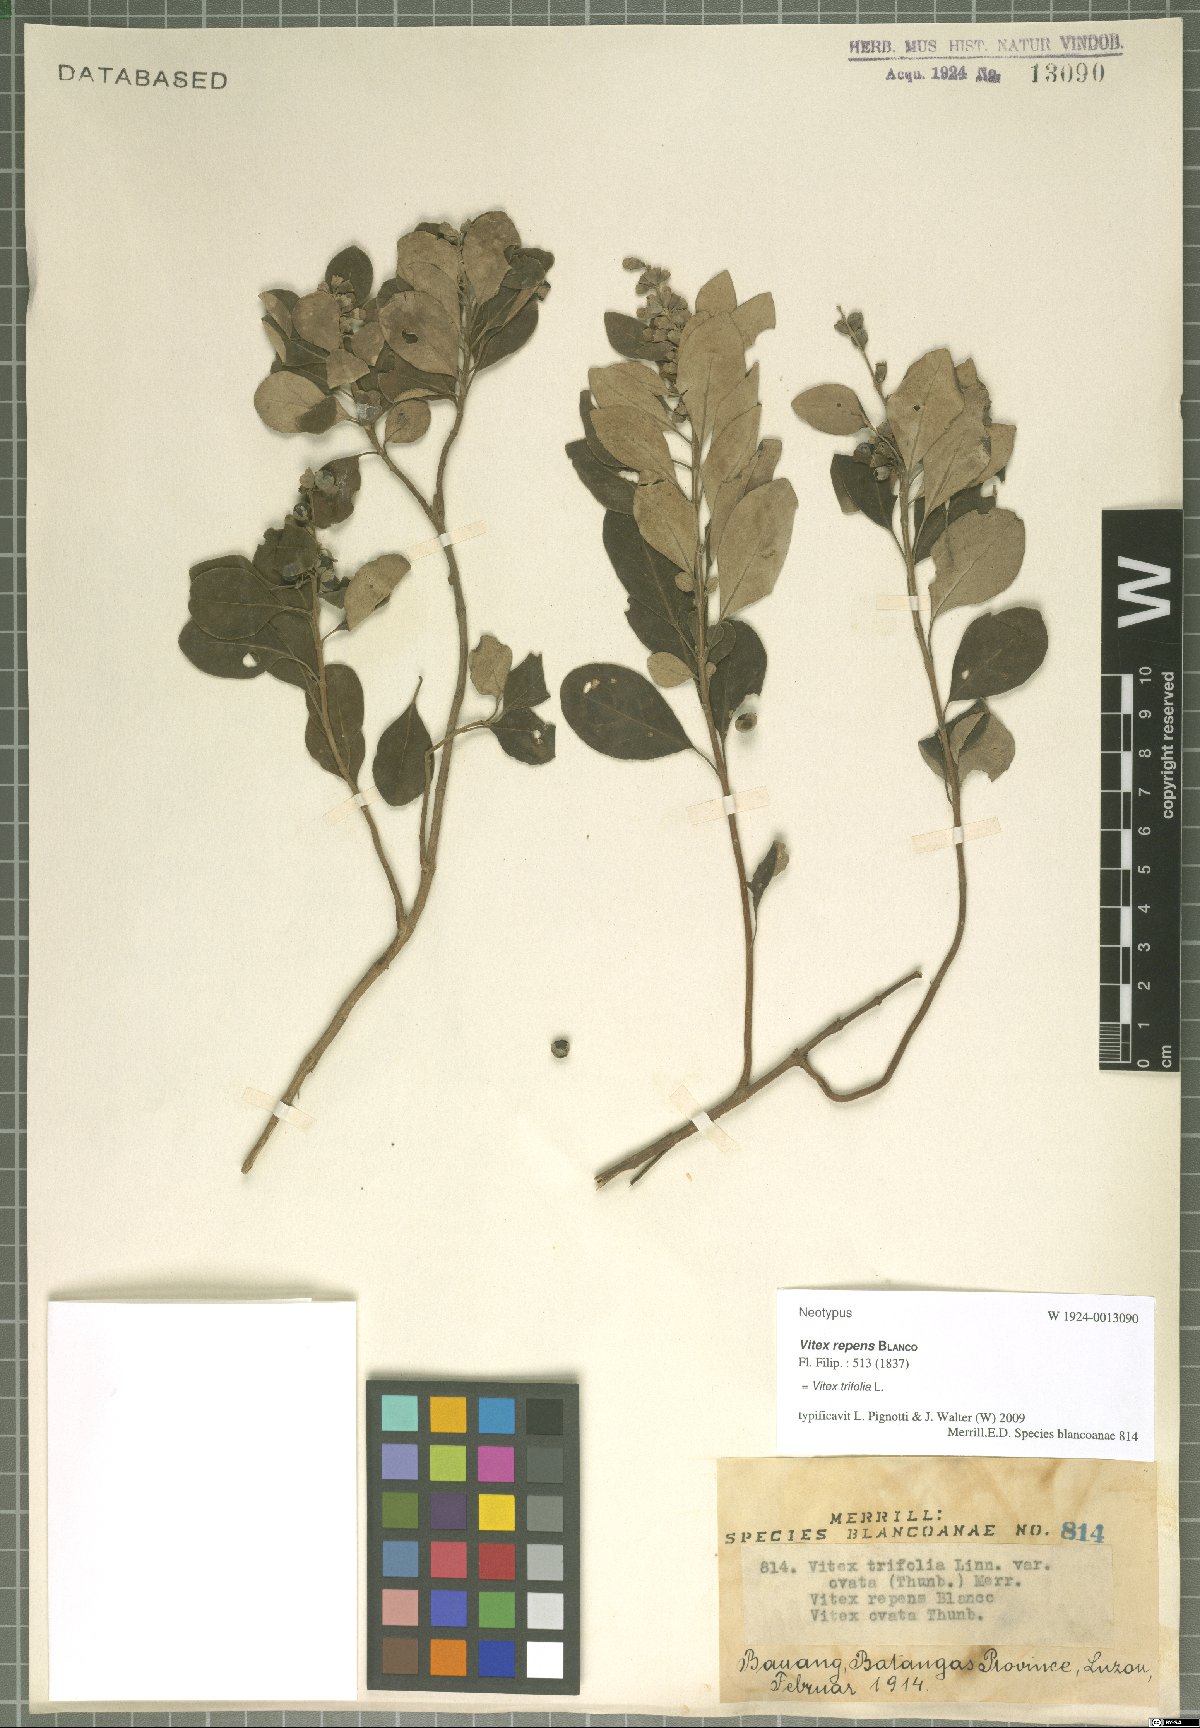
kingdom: Plantae
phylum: Tracheophyta
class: Magnoliopsida
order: Lamiales
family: Lamiaceae
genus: Vitex
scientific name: Vitex trifolia
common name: Simpleleaf chastetree
